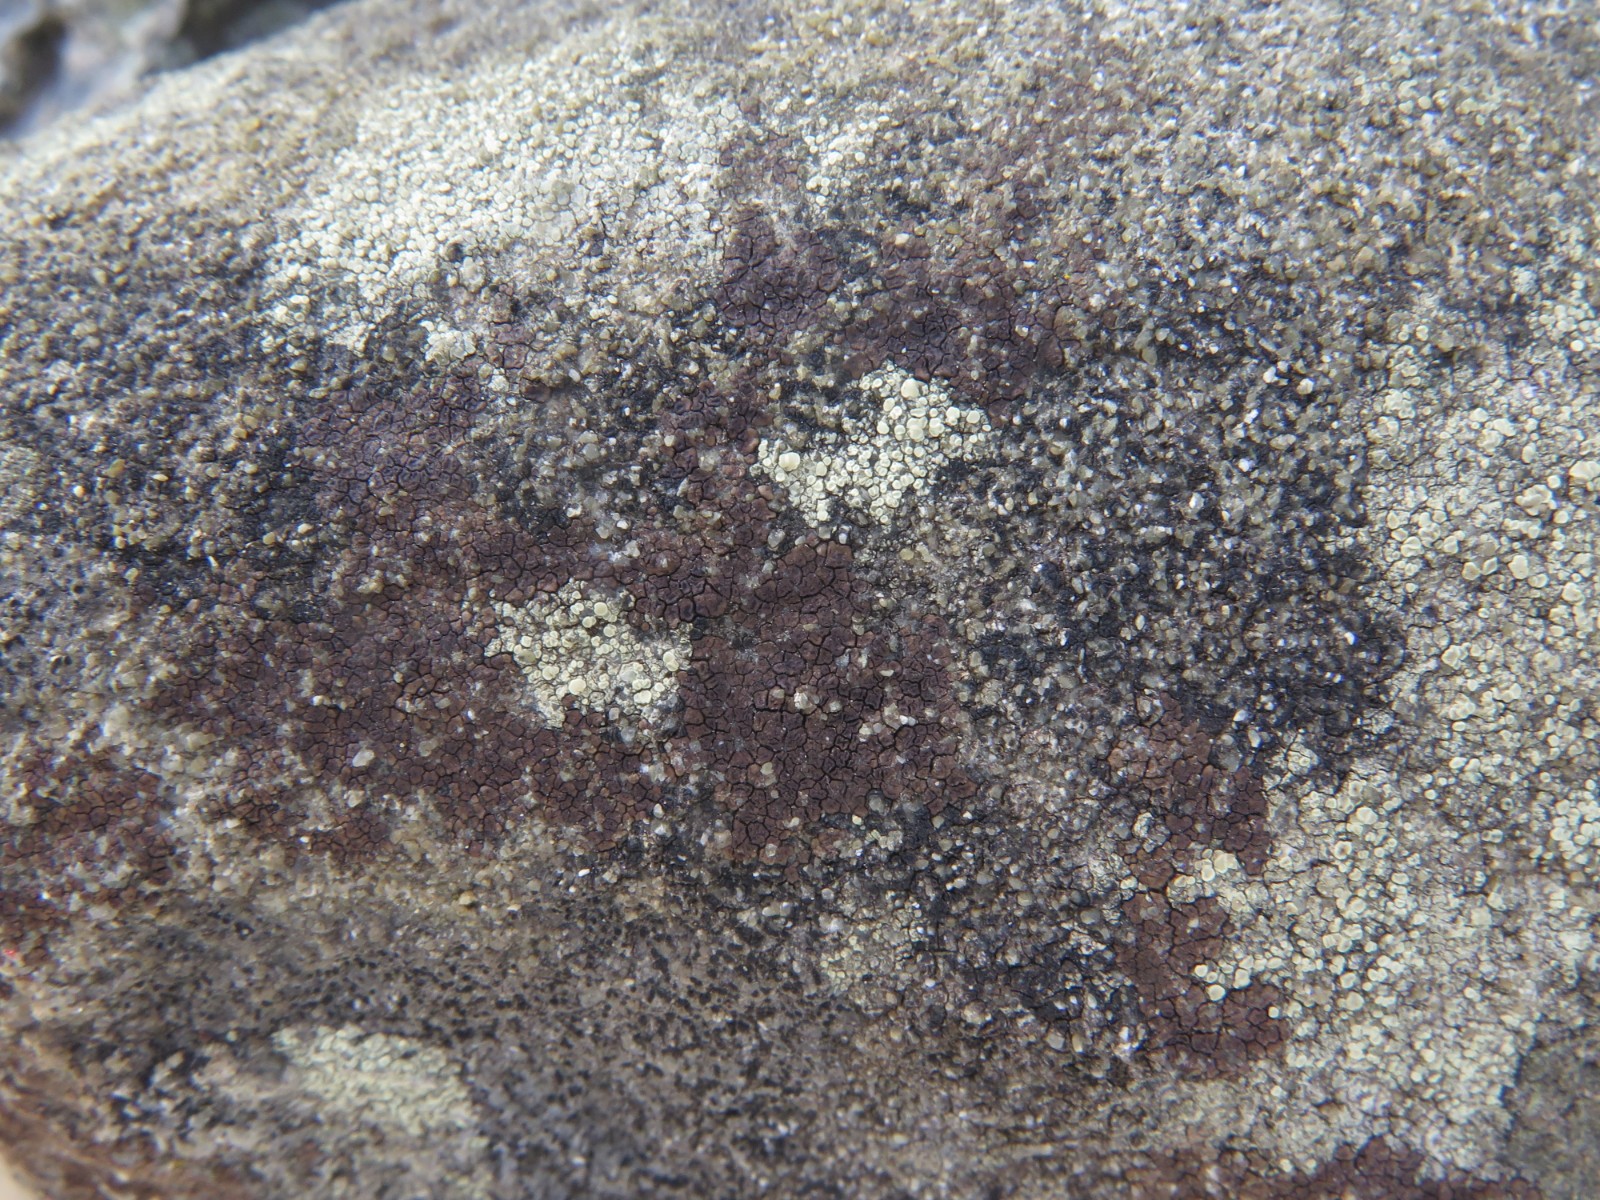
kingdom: Fungi
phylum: Ascomycota
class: Lecanoromycetes
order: Acarosporales
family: Acarosporaceae
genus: Acarospora
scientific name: Acarospora fuscata
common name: brun småsporelav
